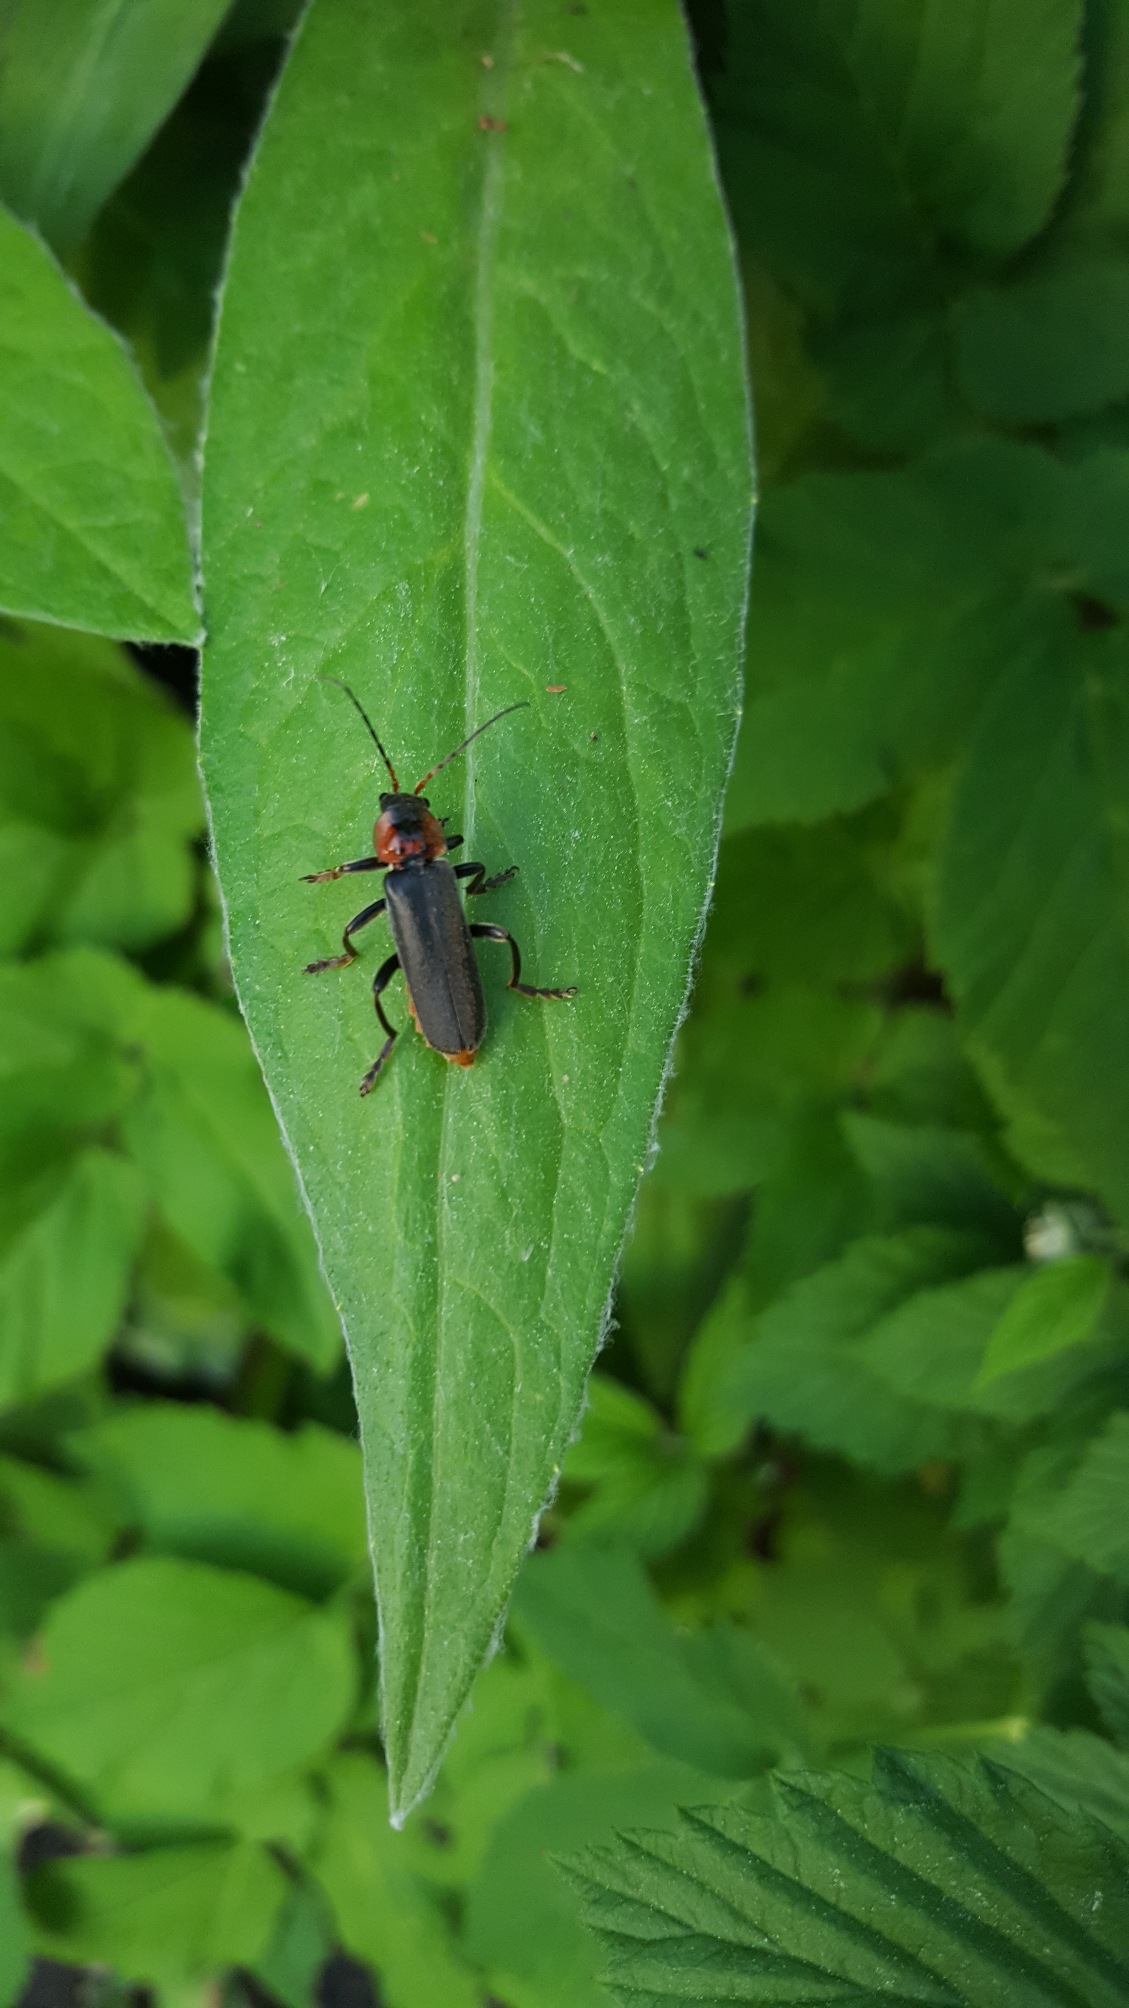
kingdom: Animalia
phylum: Arthropoda
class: Insecta
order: Coleoptera
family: Cantharidae
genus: Cantharis
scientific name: Cantharis fusca
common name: Stor blødvinge
